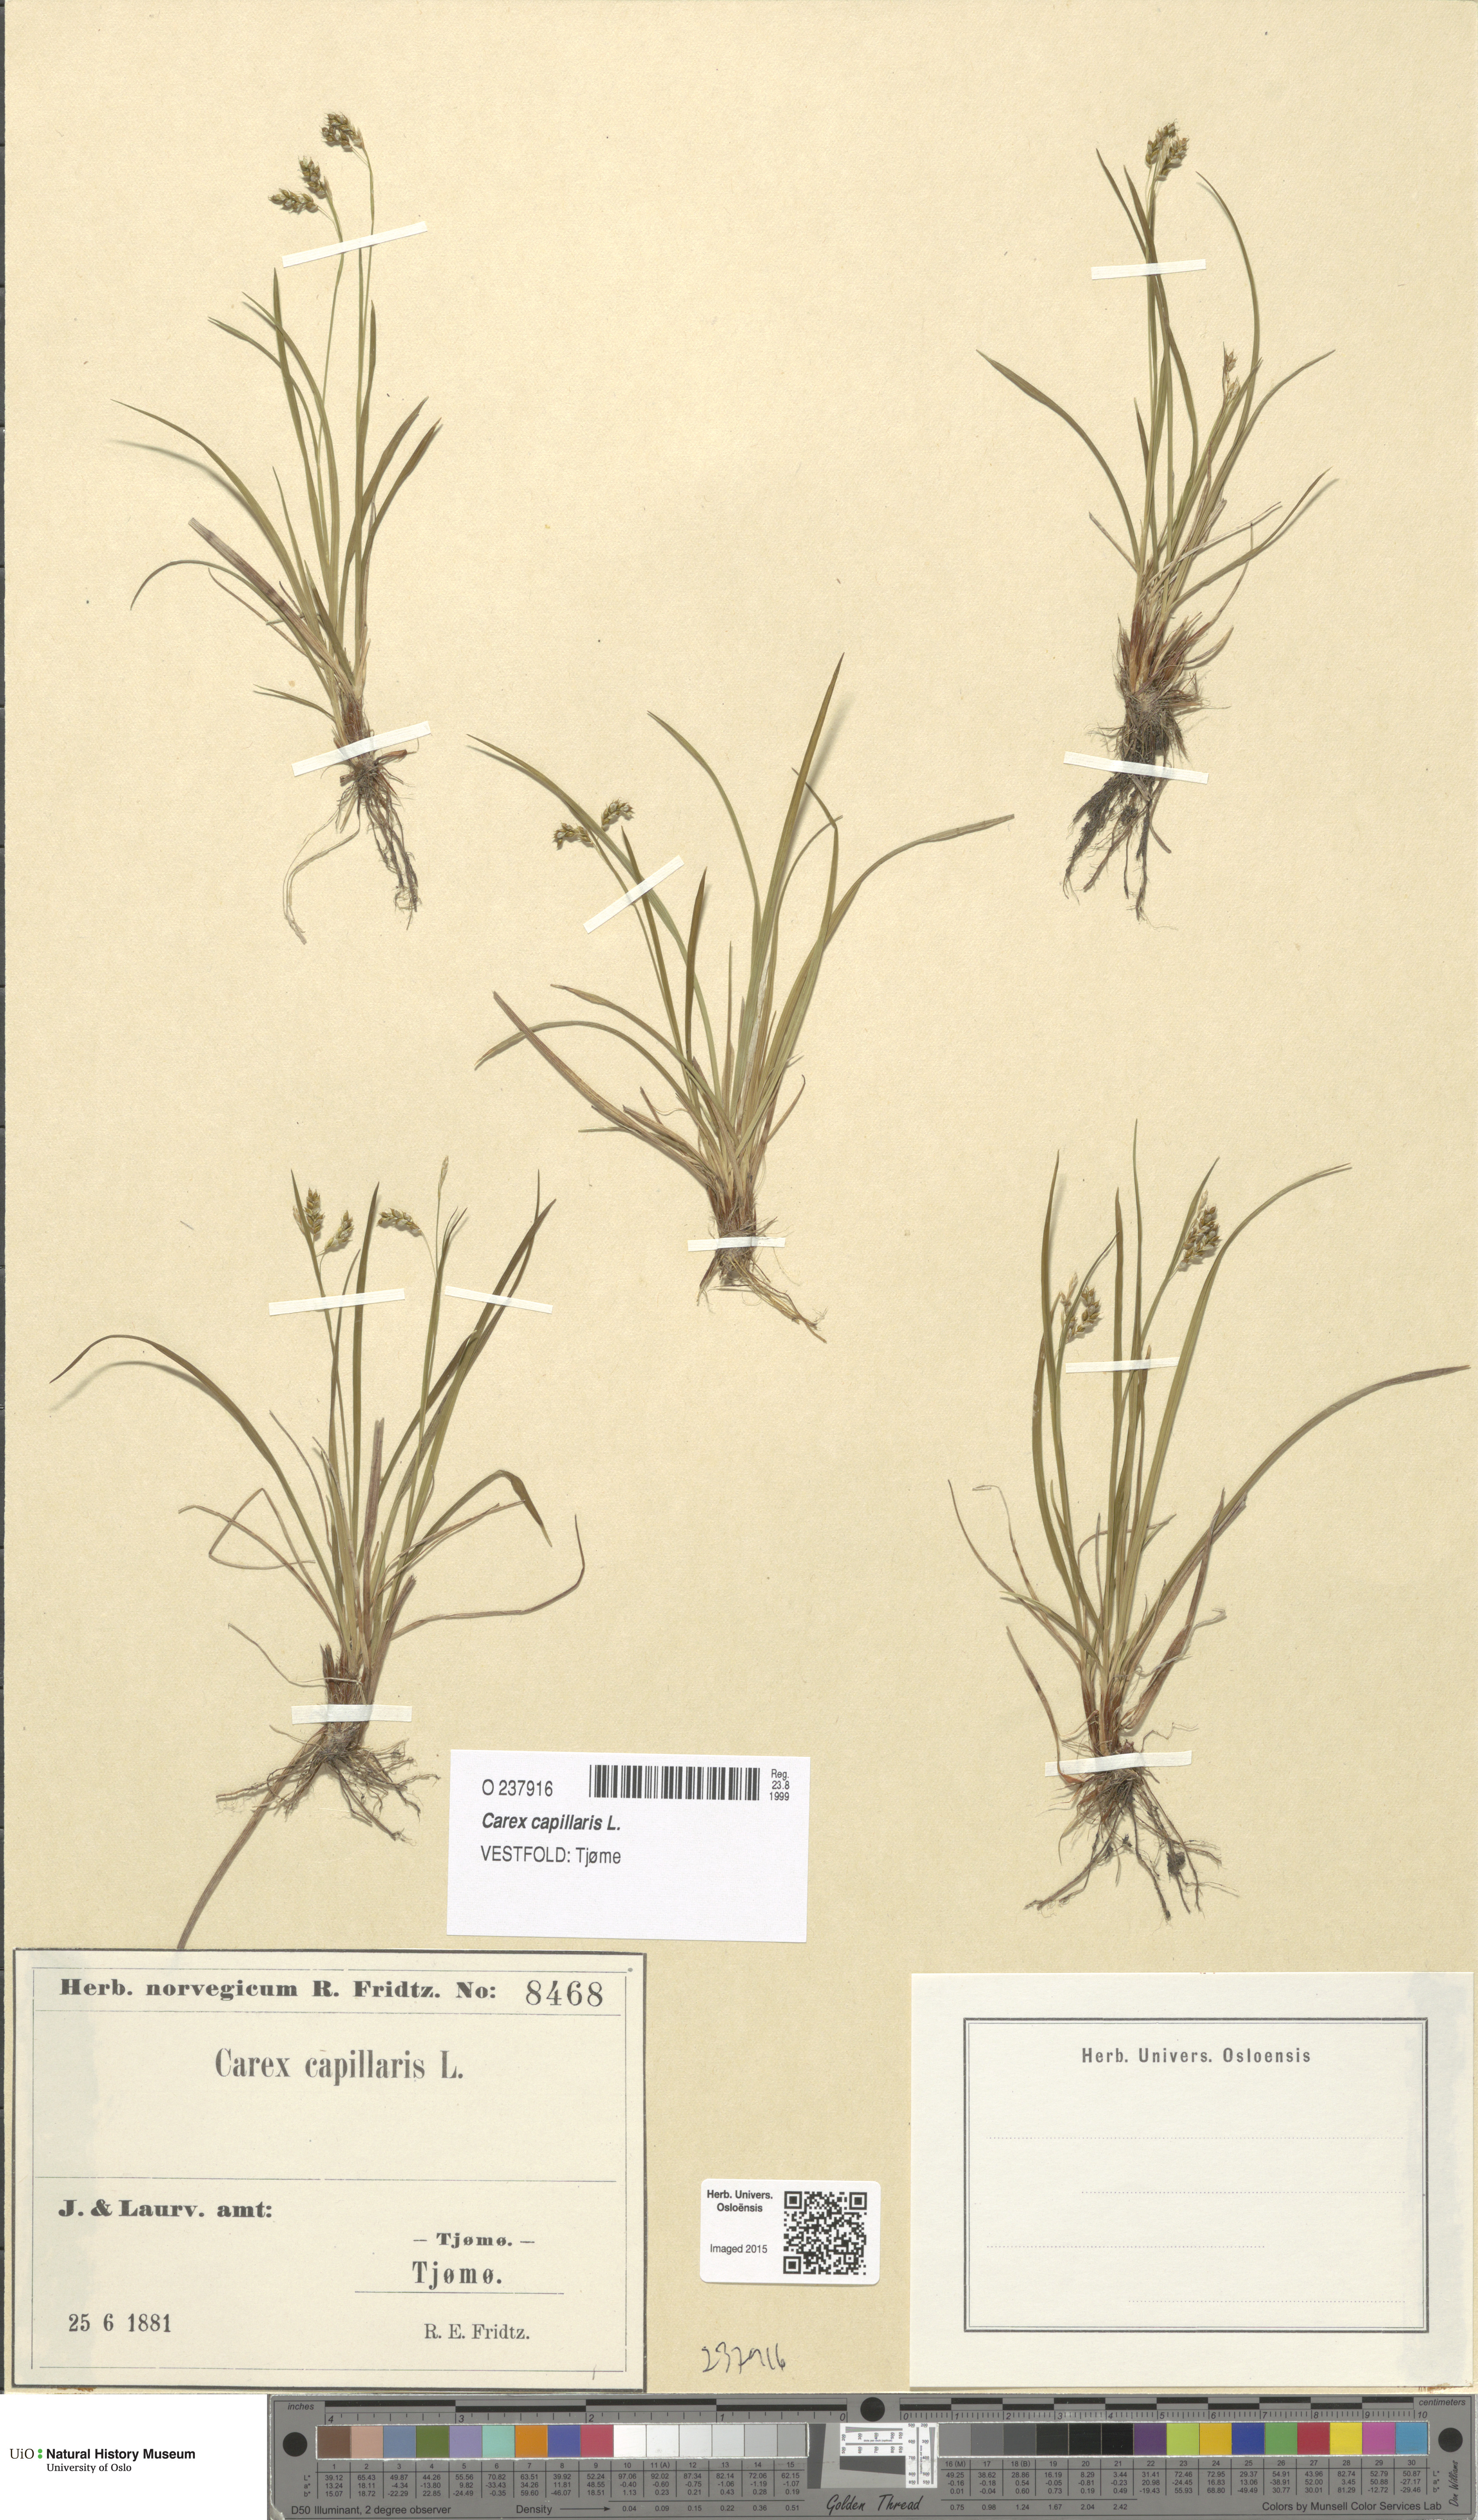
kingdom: Plantae
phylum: Tracheophyta
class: Liliopsida
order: Poales
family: Cyperaceae
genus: Carex
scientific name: Carex capillaris
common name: Hair sedge
